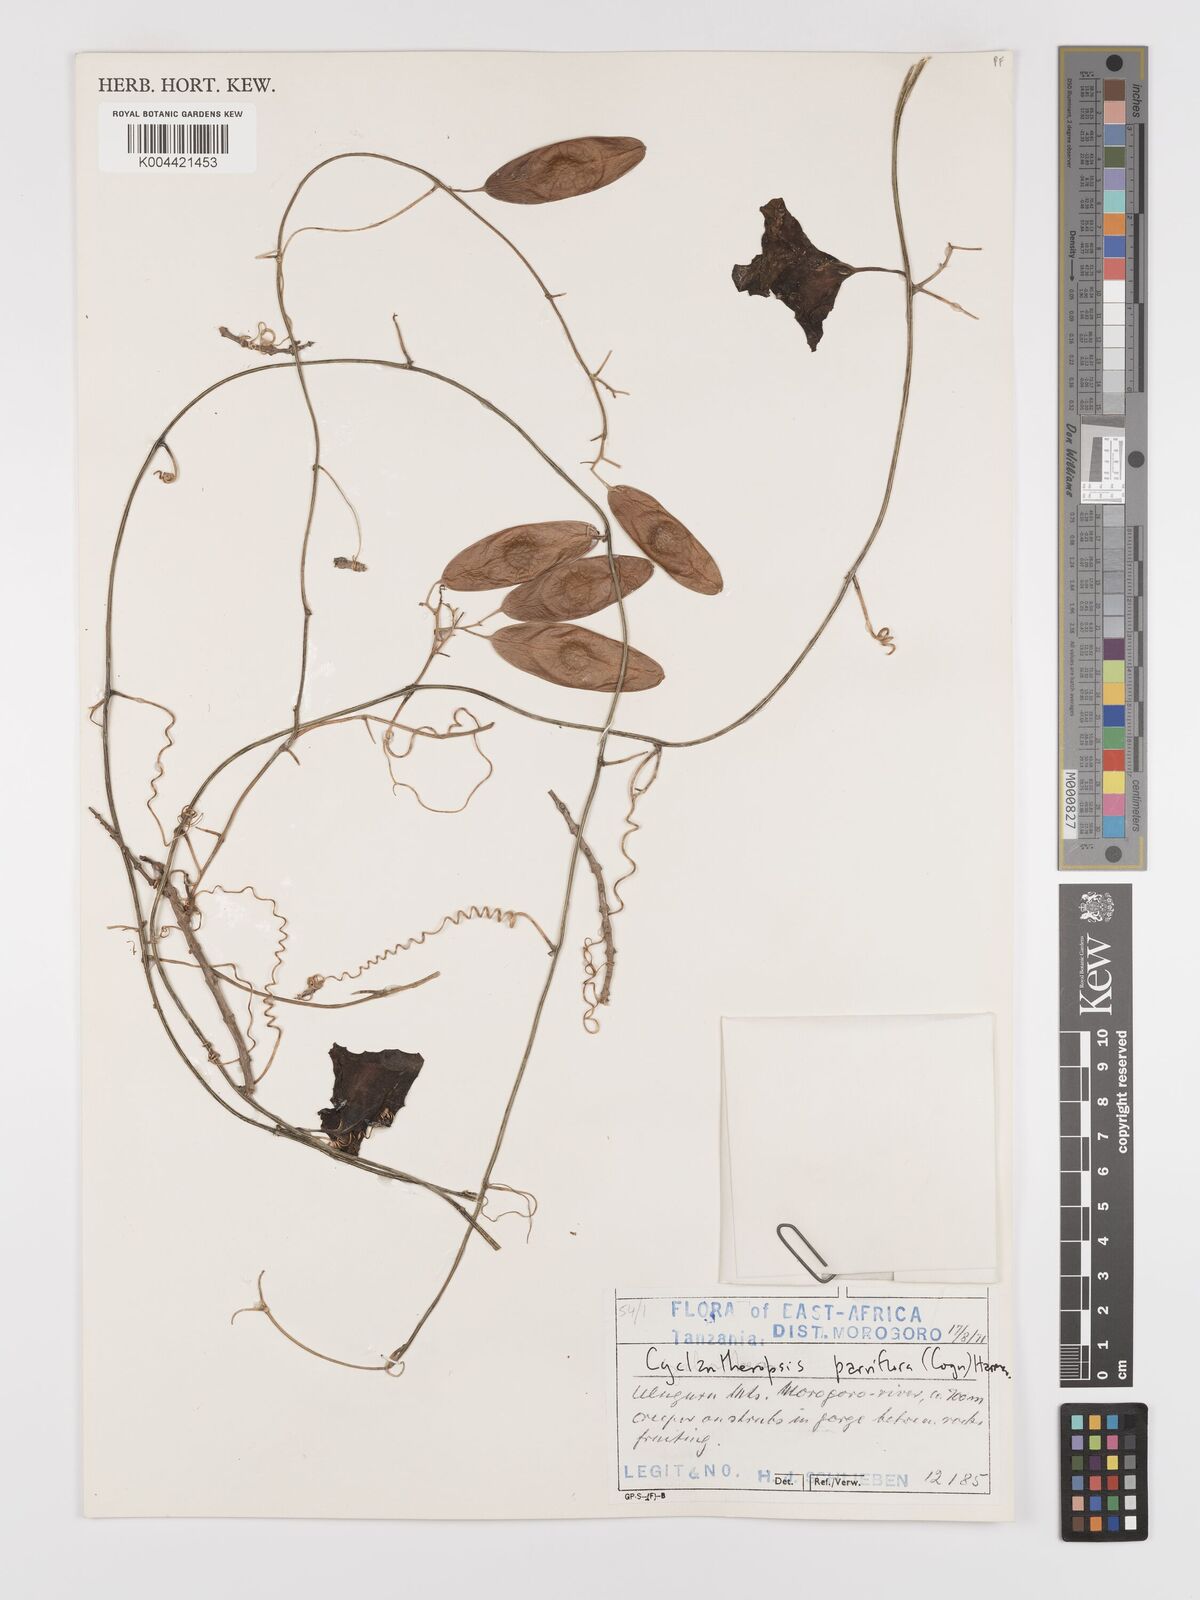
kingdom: Plantae
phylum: Tracheophyta
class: Magnoliopsida
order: Cucurbitales
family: Cucurbitaceae
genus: Cyclantheropsis
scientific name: Cyclantheropsis parviflora
